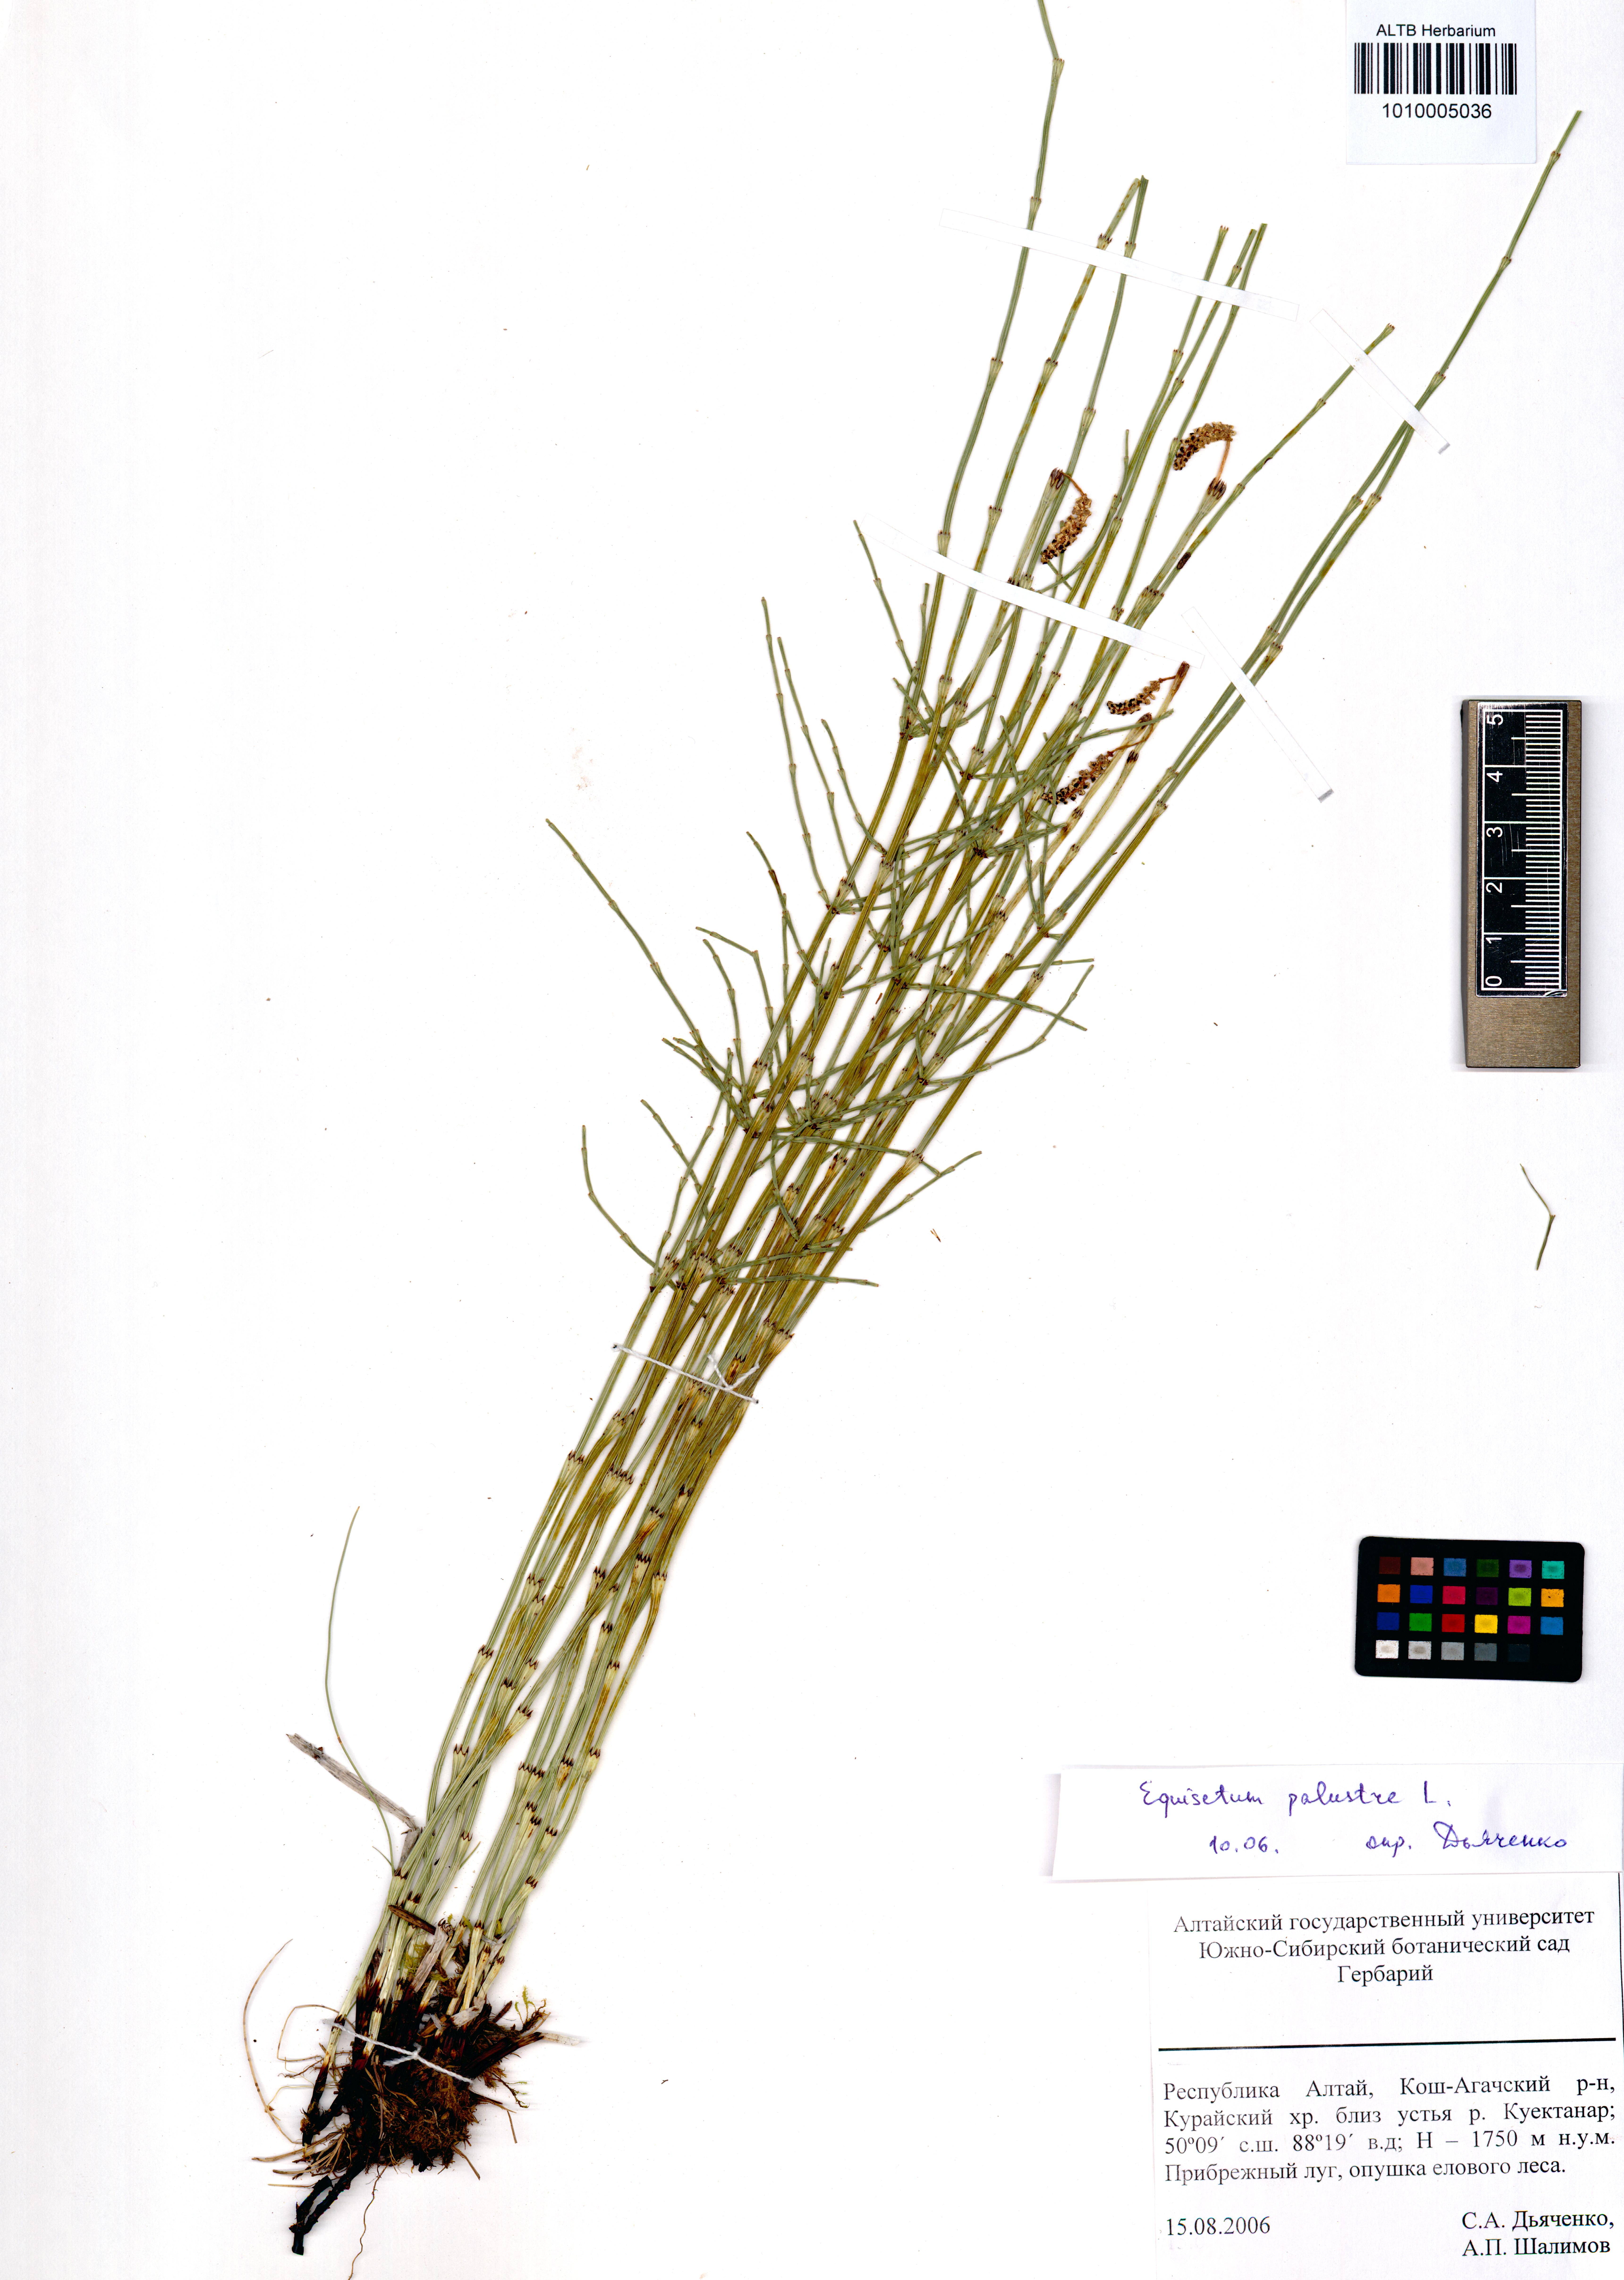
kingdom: Plantae
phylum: Tracheophyta
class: Polypodiopsida
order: Equisetales
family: Equisetaceae
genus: Equisetum
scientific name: Equisetum palustre
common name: Marsh horsetail
